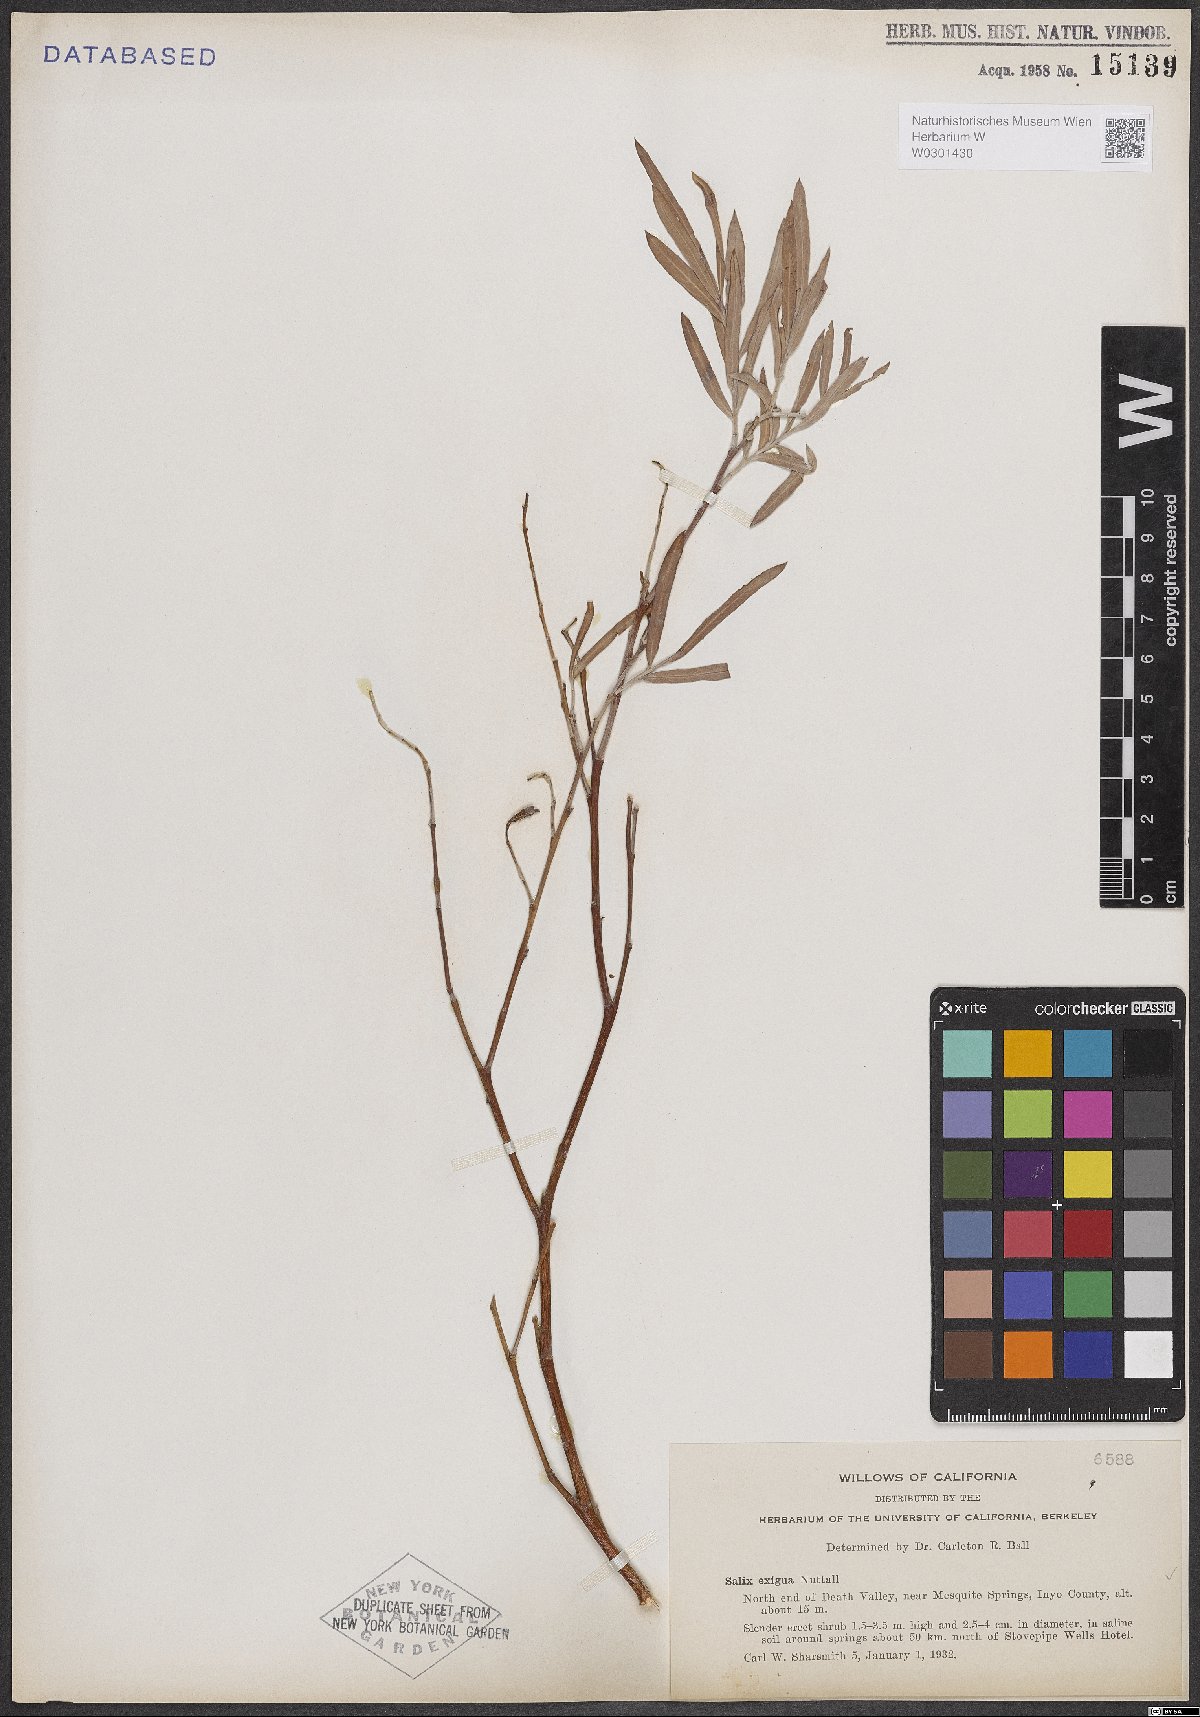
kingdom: Plantae
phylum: Tracheophyta
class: Magnoliopsida
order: Malpighiales
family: Salicaceae
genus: Salix
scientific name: Salix exigua
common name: Coyote willow
